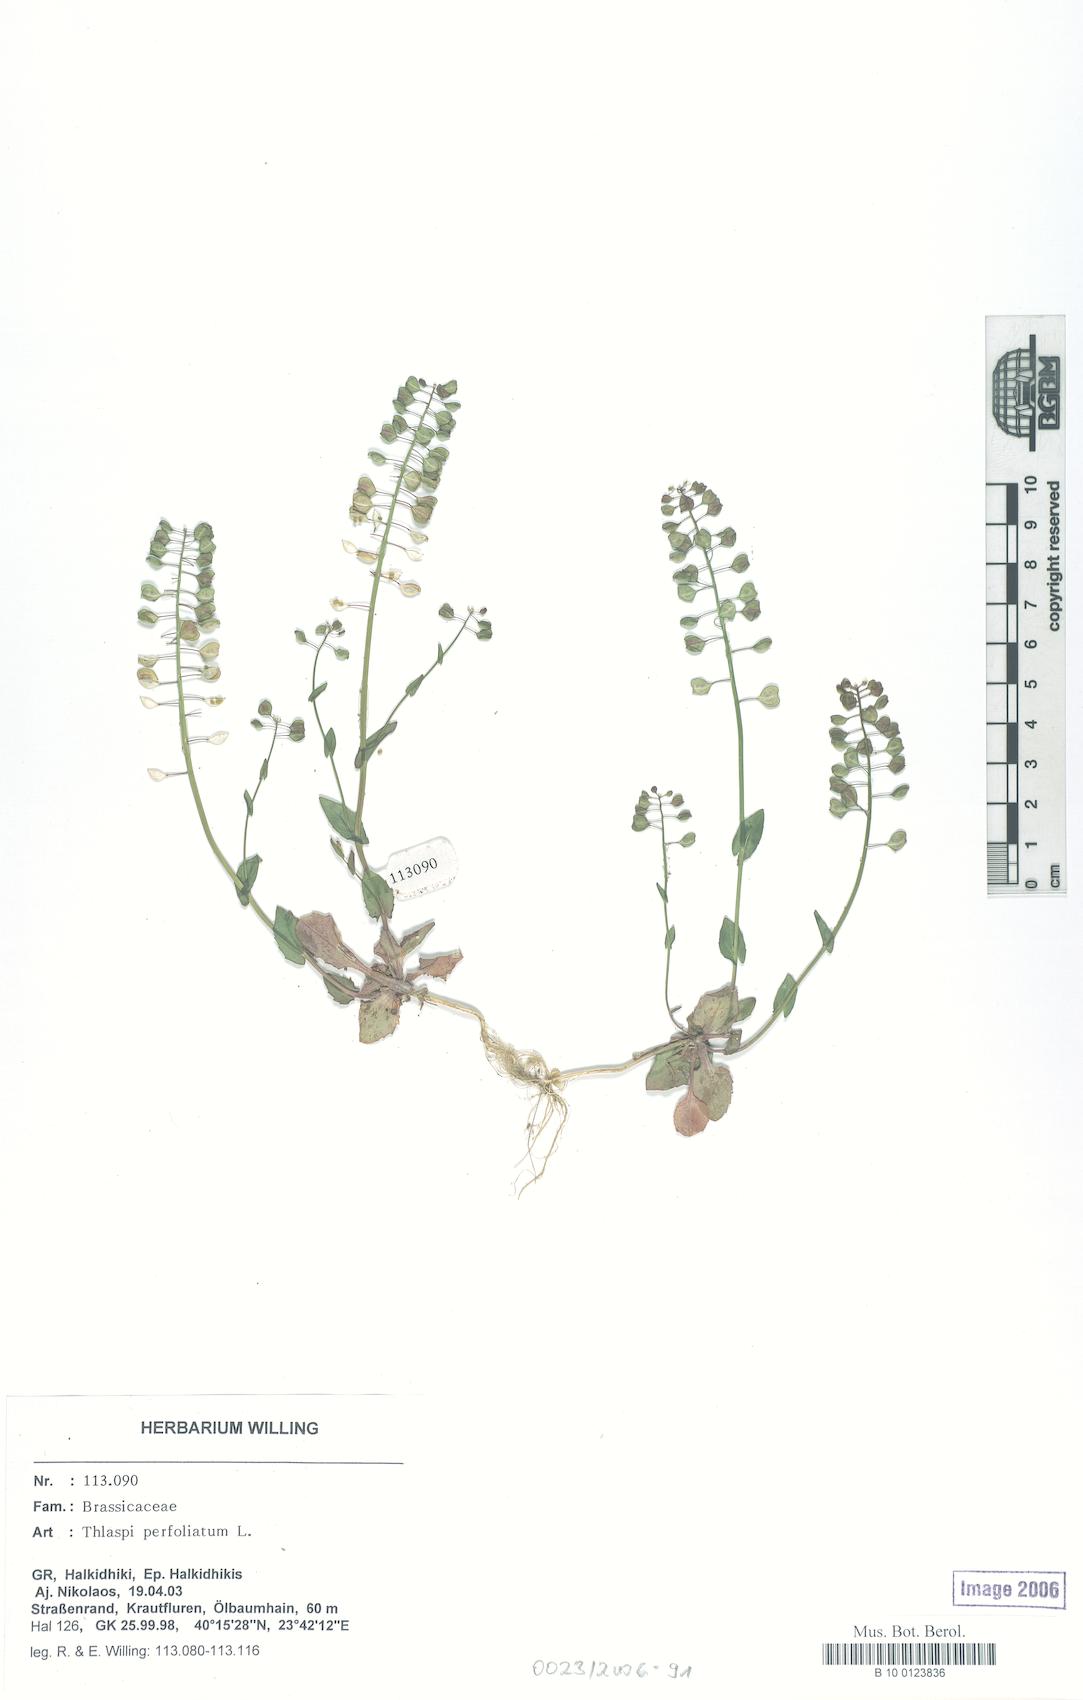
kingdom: Plantae
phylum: Tracheophyta
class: Magnoliopsida
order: Brassicales
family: Brassicaceae
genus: Noccaea
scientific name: Noccaea perfoliata
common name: Perfoliate pennycress
